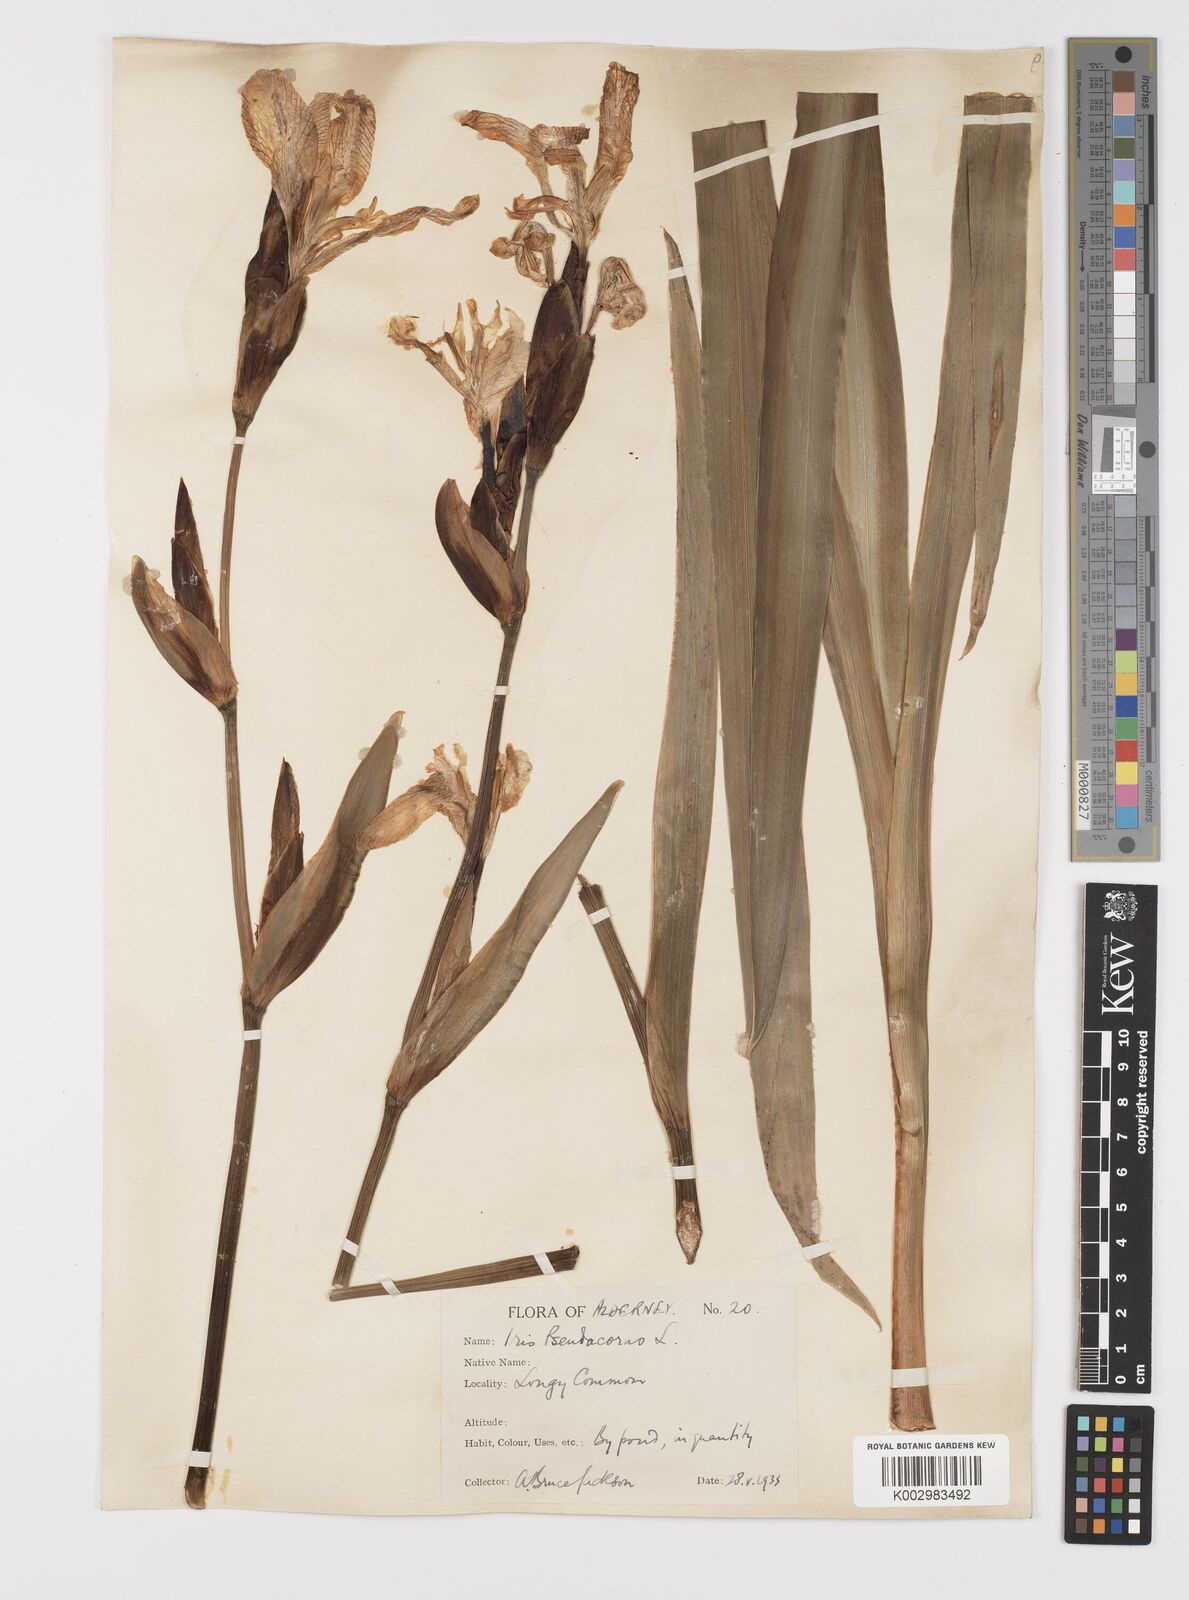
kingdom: Plantae
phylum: Tracheophyta
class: Liliopsida
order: Asparagales
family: Iridaceae
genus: Iris
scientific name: Iris pseudacorus
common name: Yellow flag
